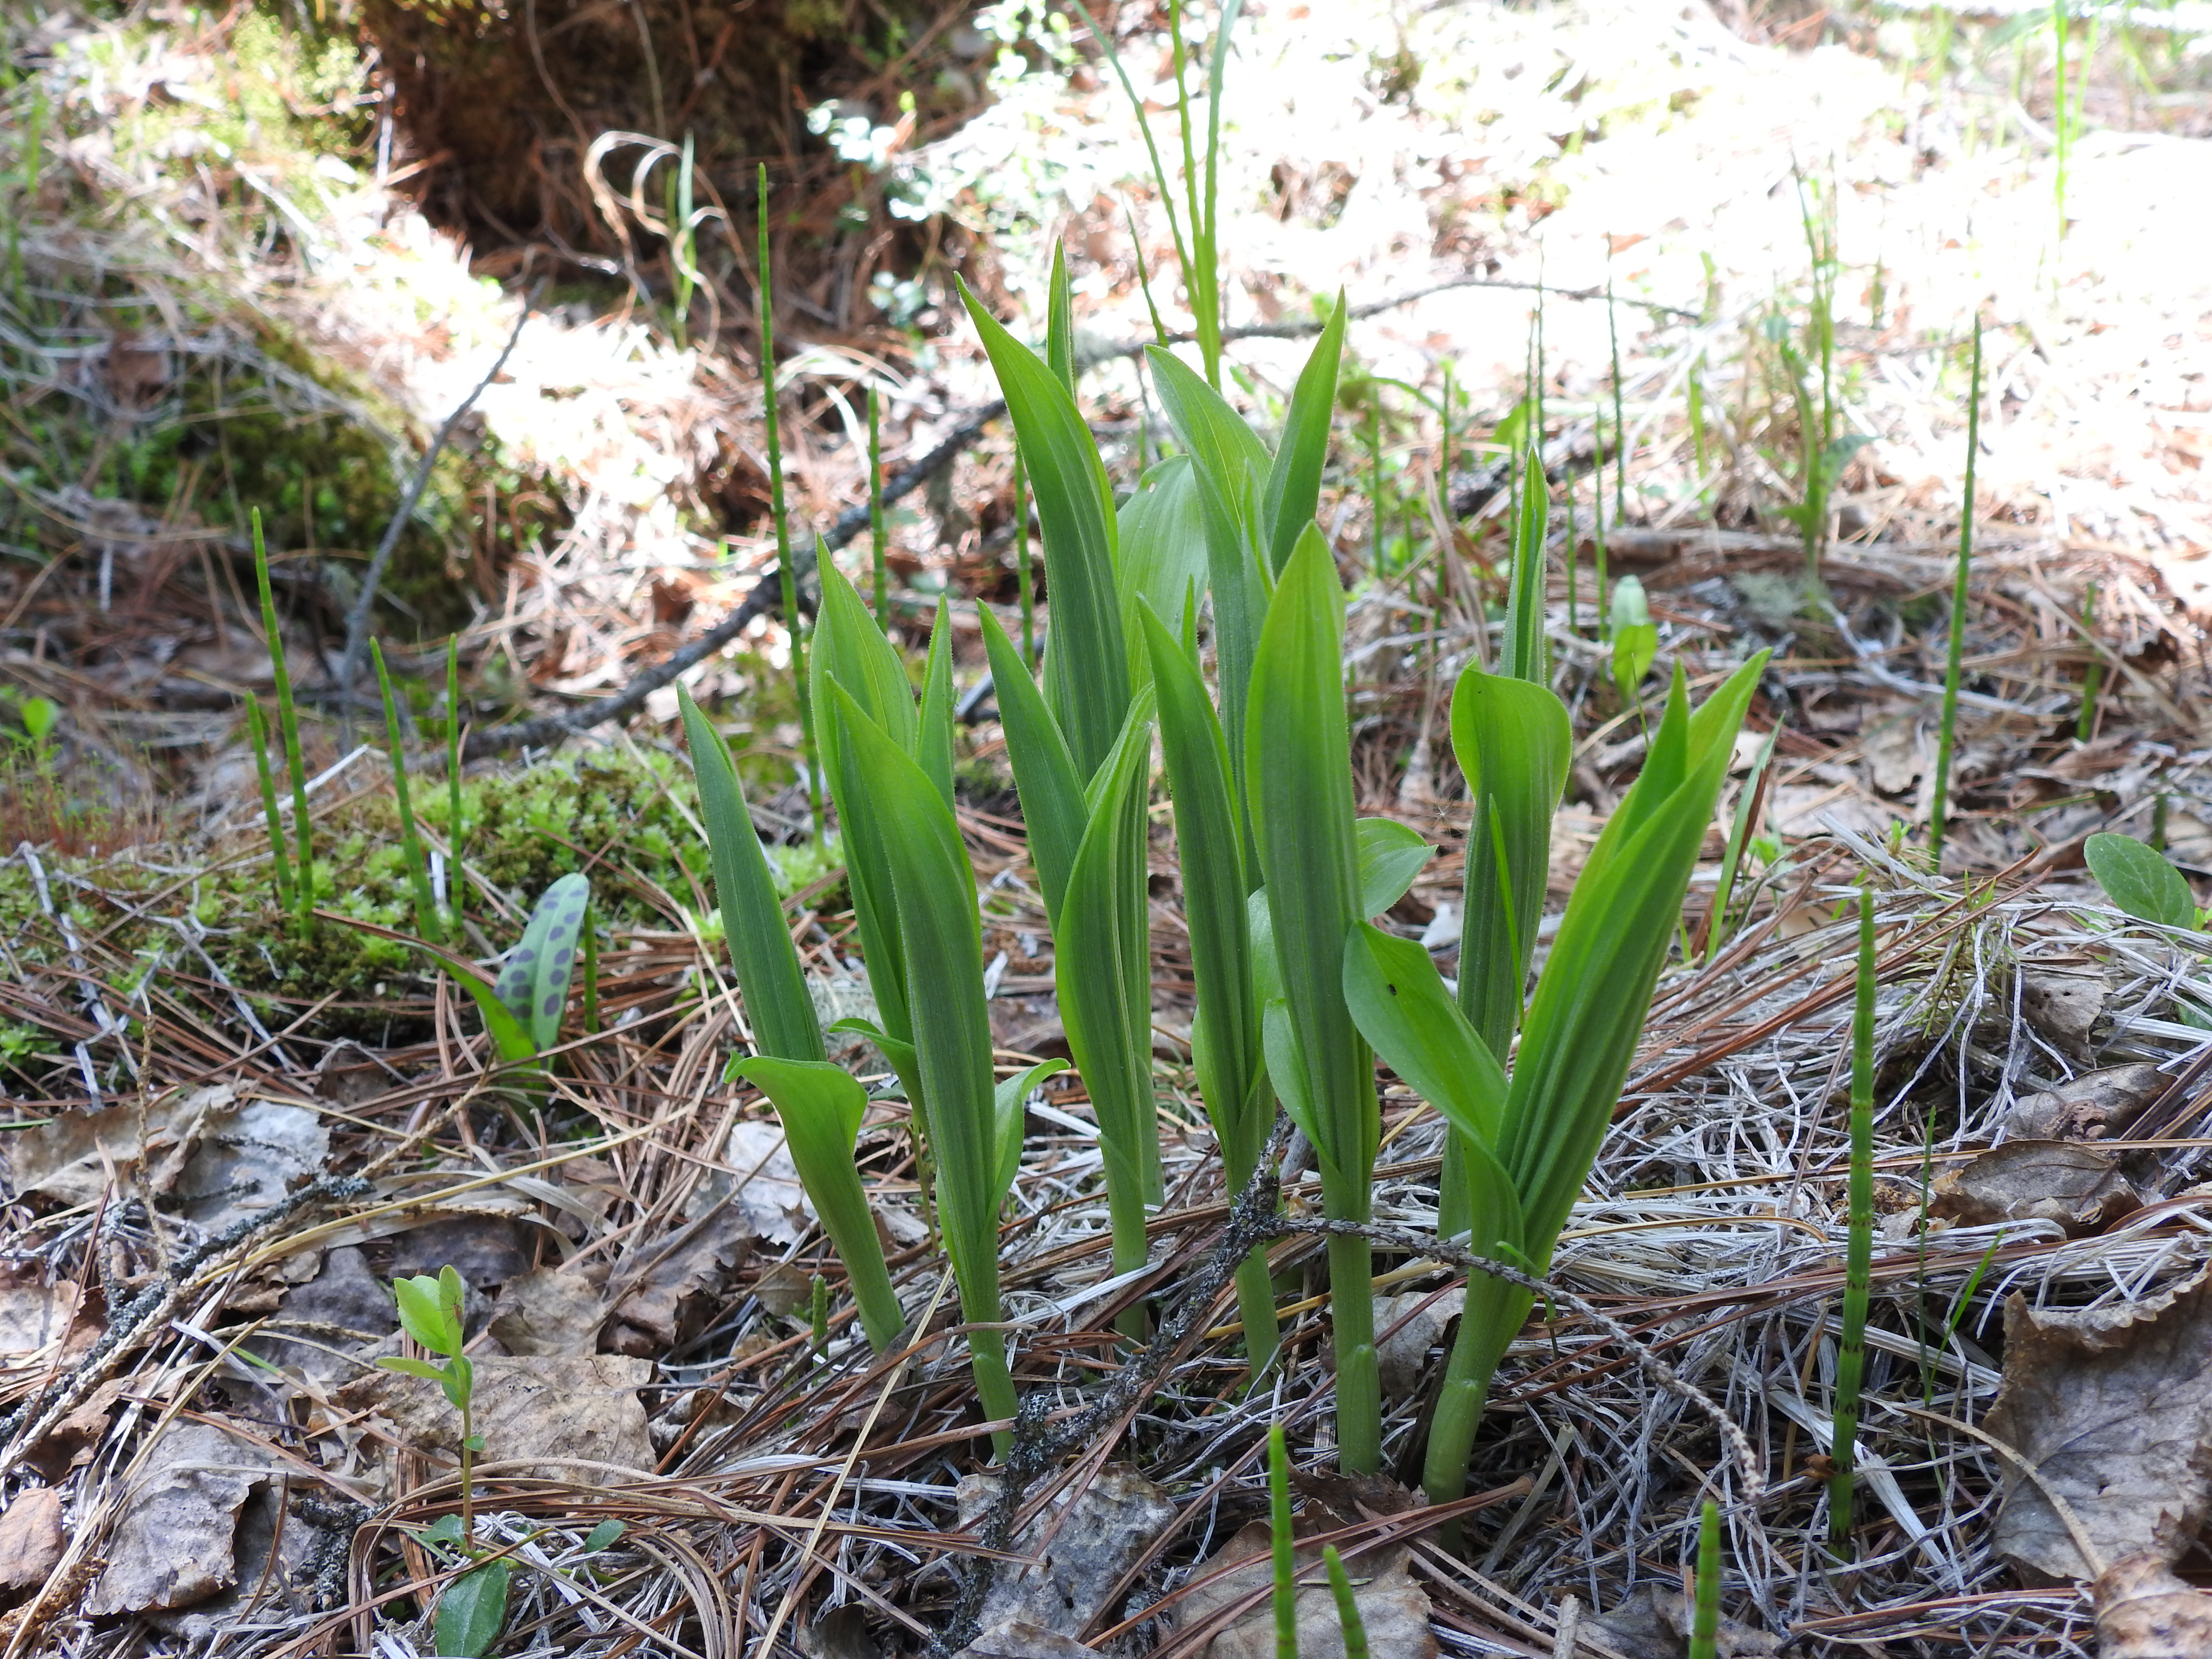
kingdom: Plantae
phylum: Tracheophyta
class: Liliopsida
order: Asparagales
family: Orchidaceae
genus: Cypripedium
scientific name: Cypripedium calceolus
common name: Lady's-slipper
